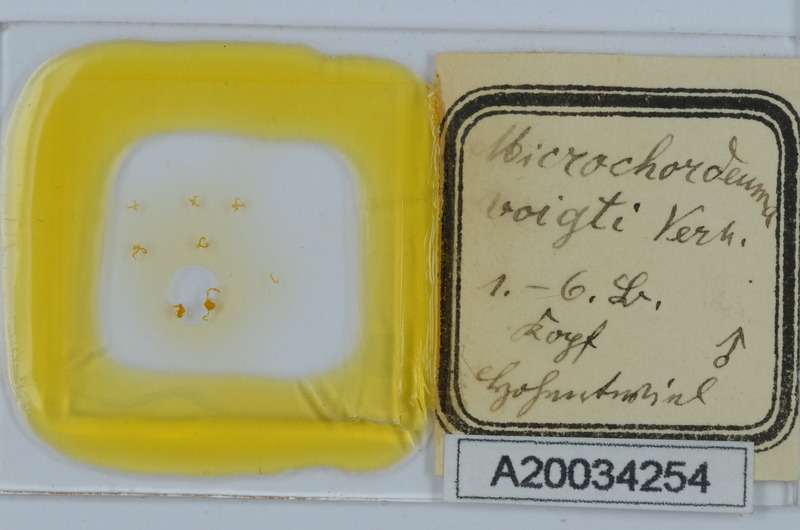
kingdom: Animalia
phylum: Arthropoda
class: Diplopoda
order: Chordeumatida
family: Chordeumatidae
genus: Melogona
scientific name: Melogona voigtii
